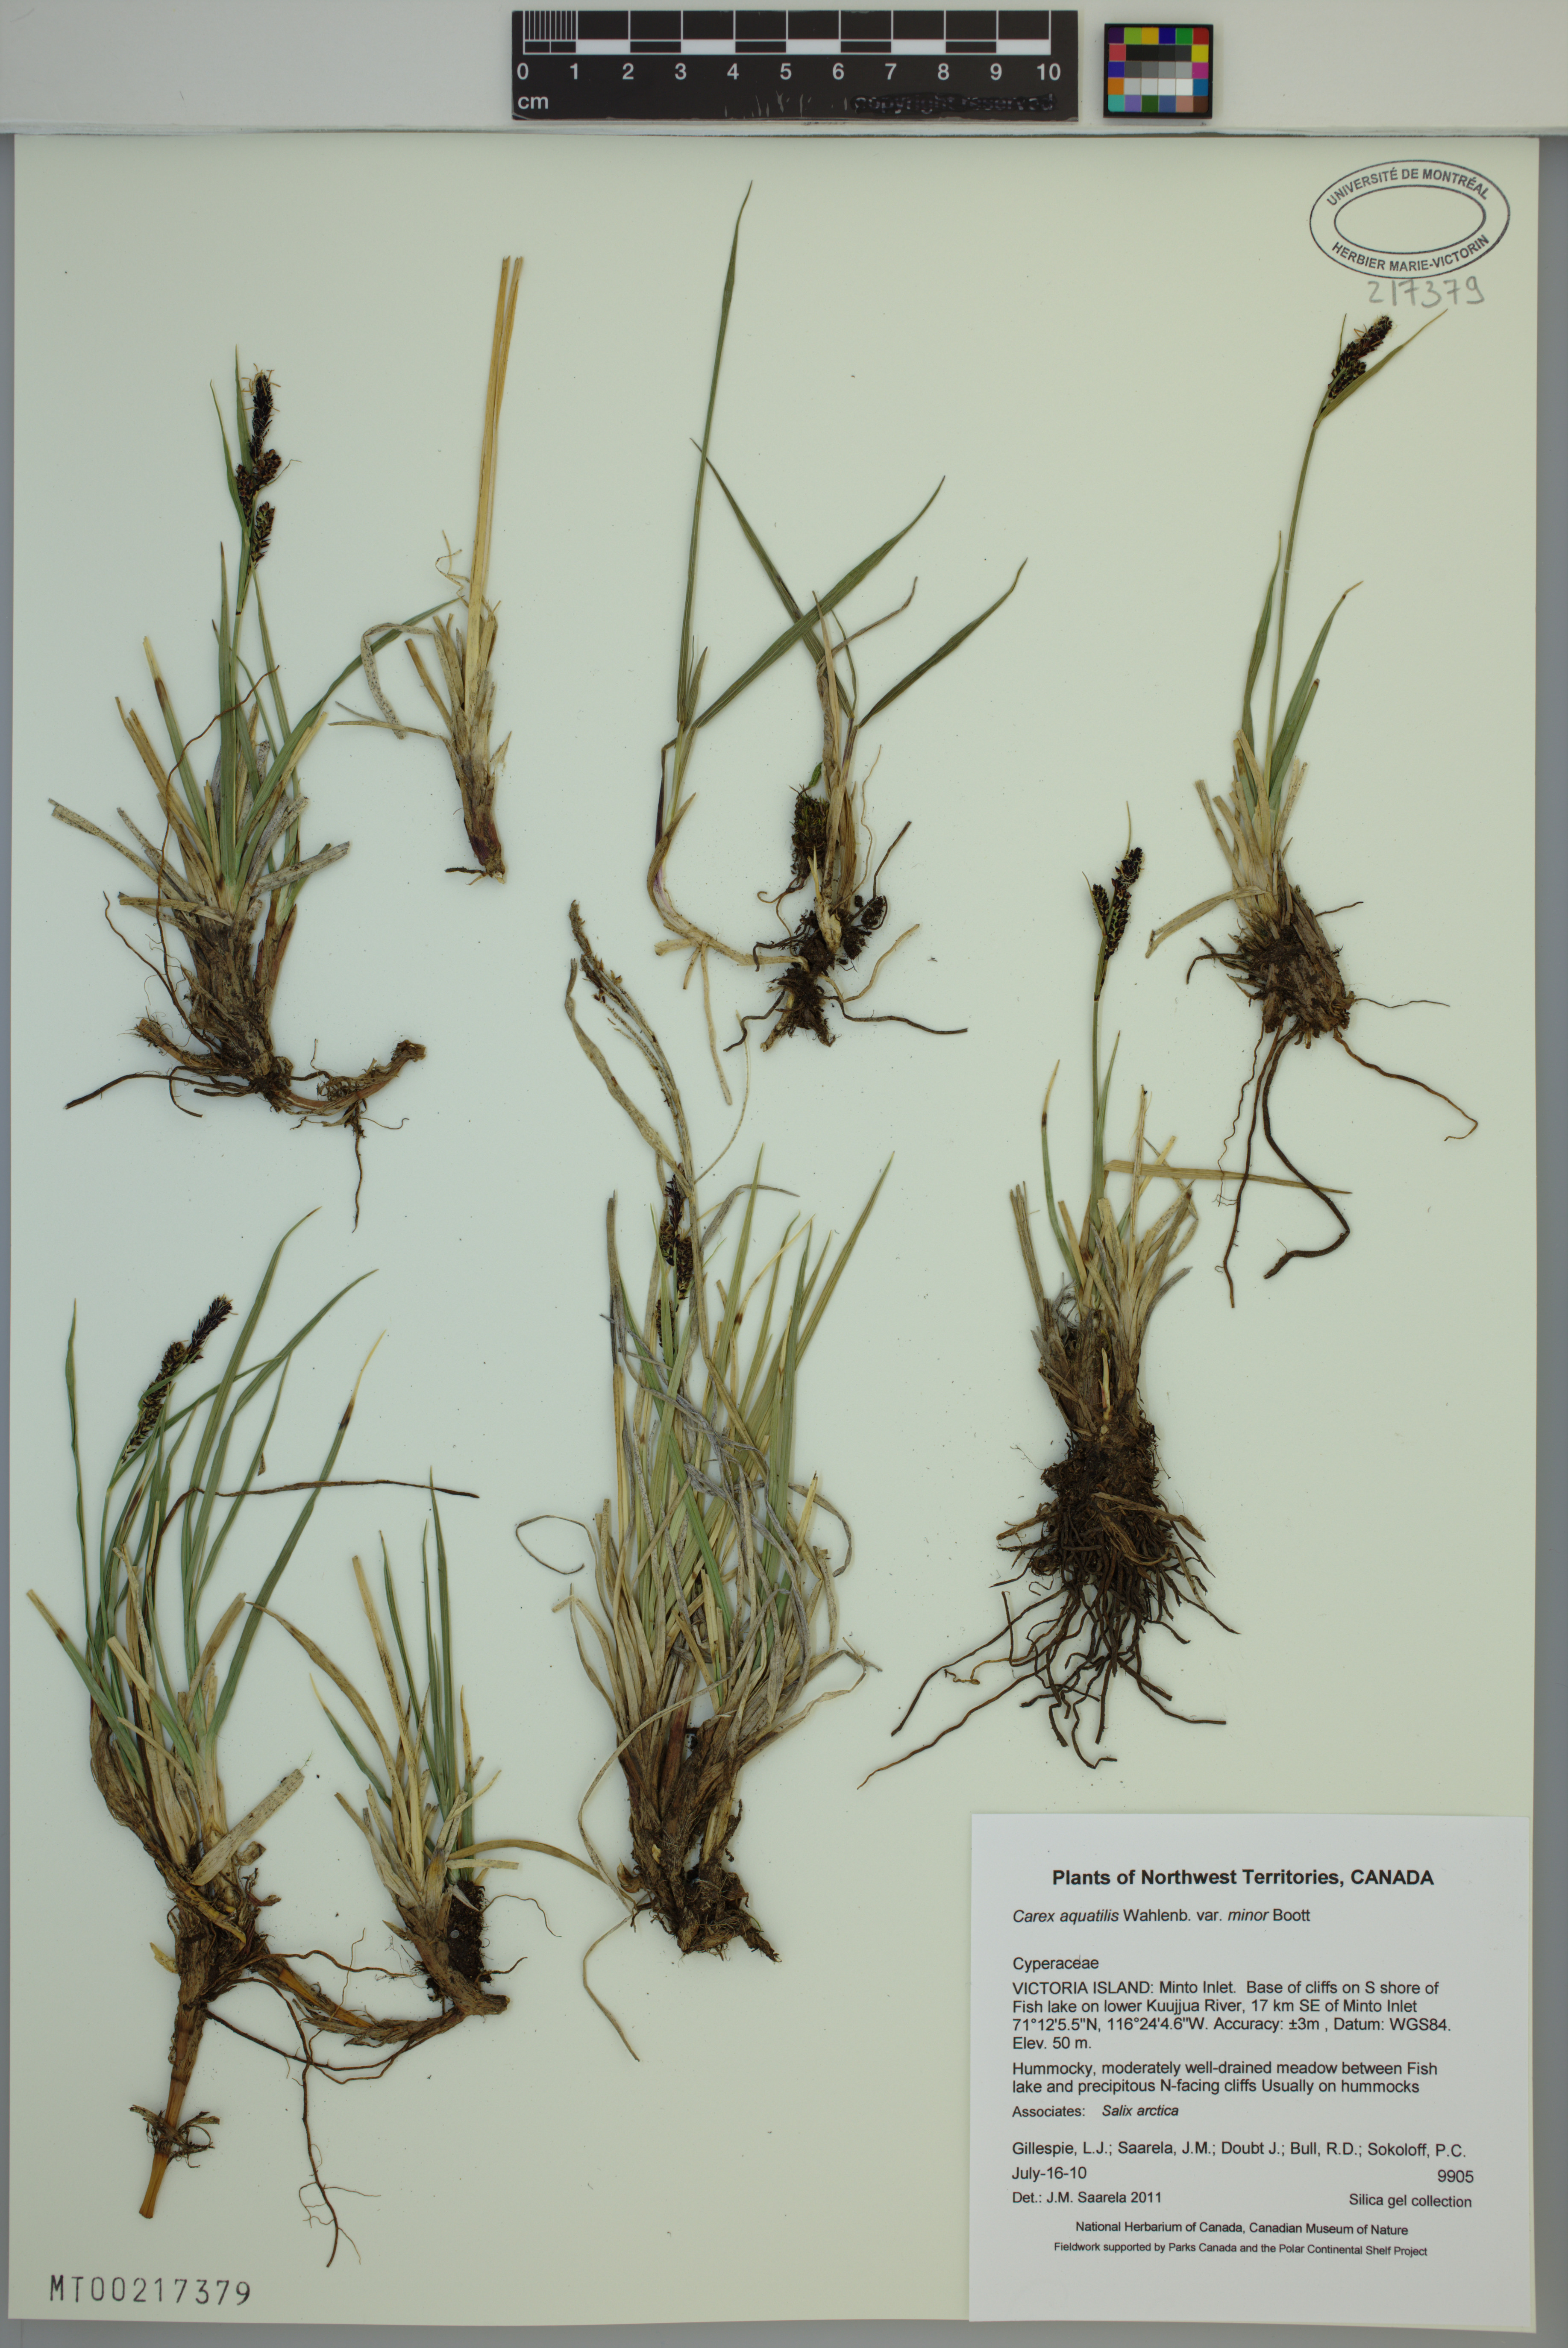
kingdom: Plantae
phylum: Tracheophyta
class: Liliopsida
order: Poales
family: Cyperaceae
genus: Carex
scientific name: Carex aquatilis
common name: Water sedge
